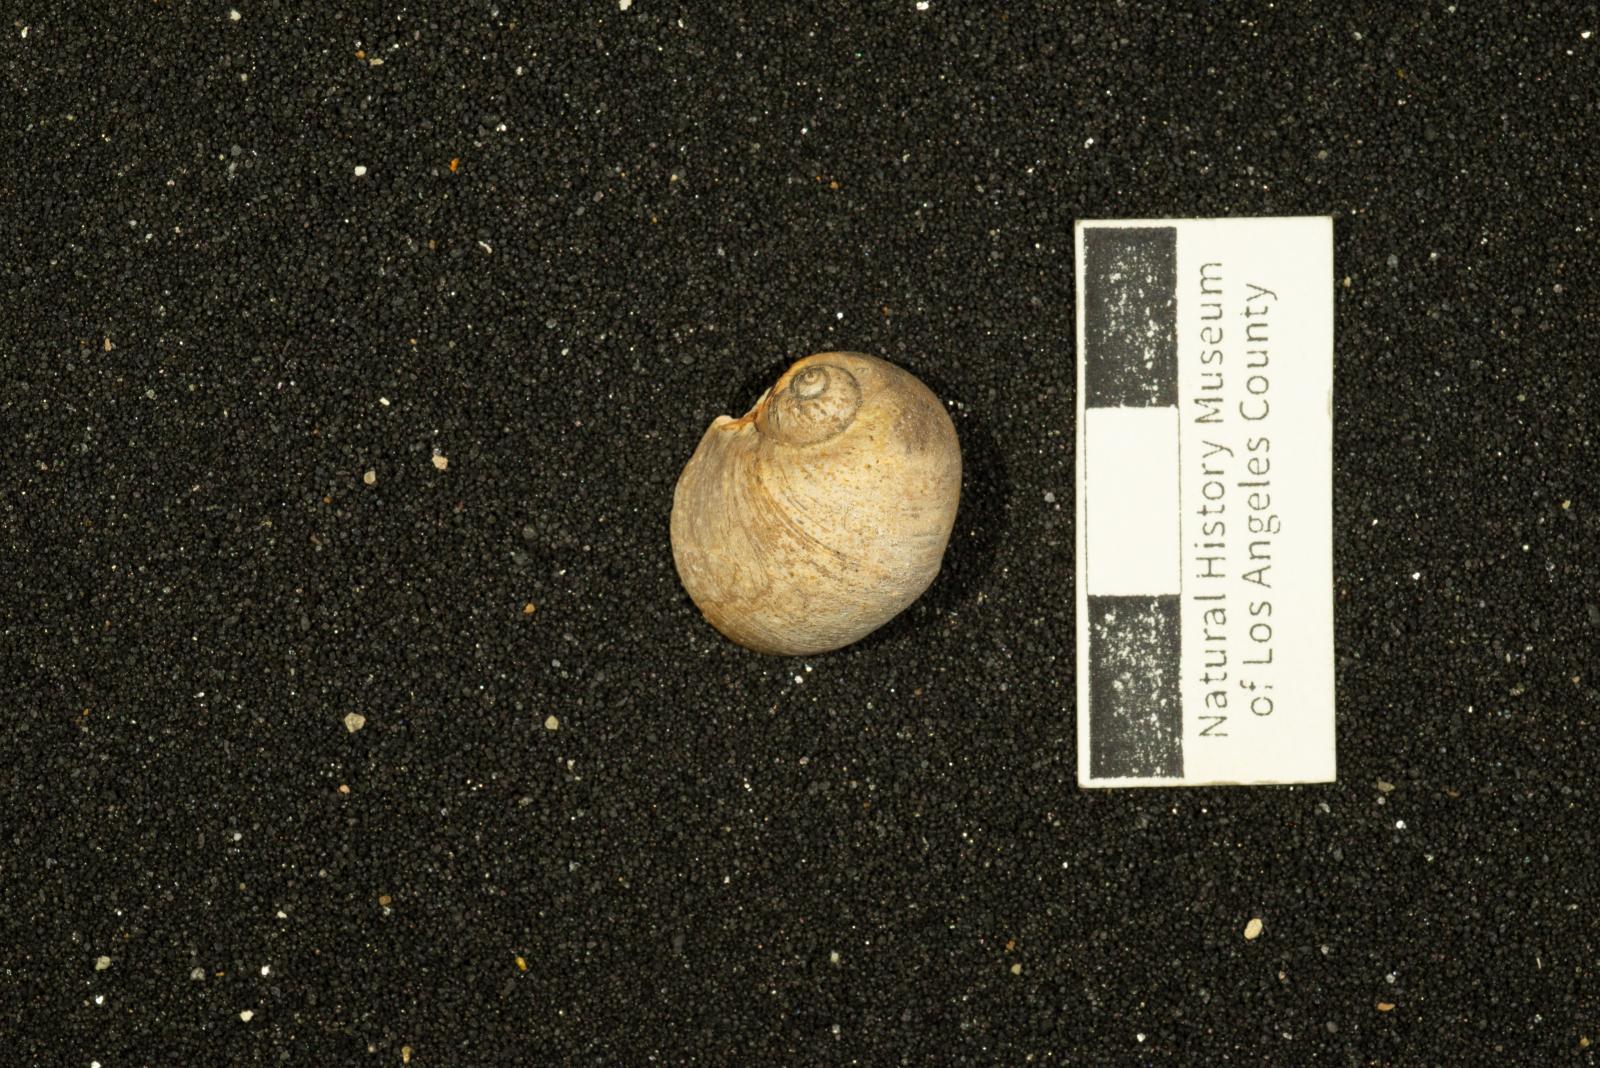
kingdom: Animalia
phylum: Mollusca
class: Gastropoda
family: Gyrodidae
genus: Gyrodes
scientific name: Gyrodes quercus
